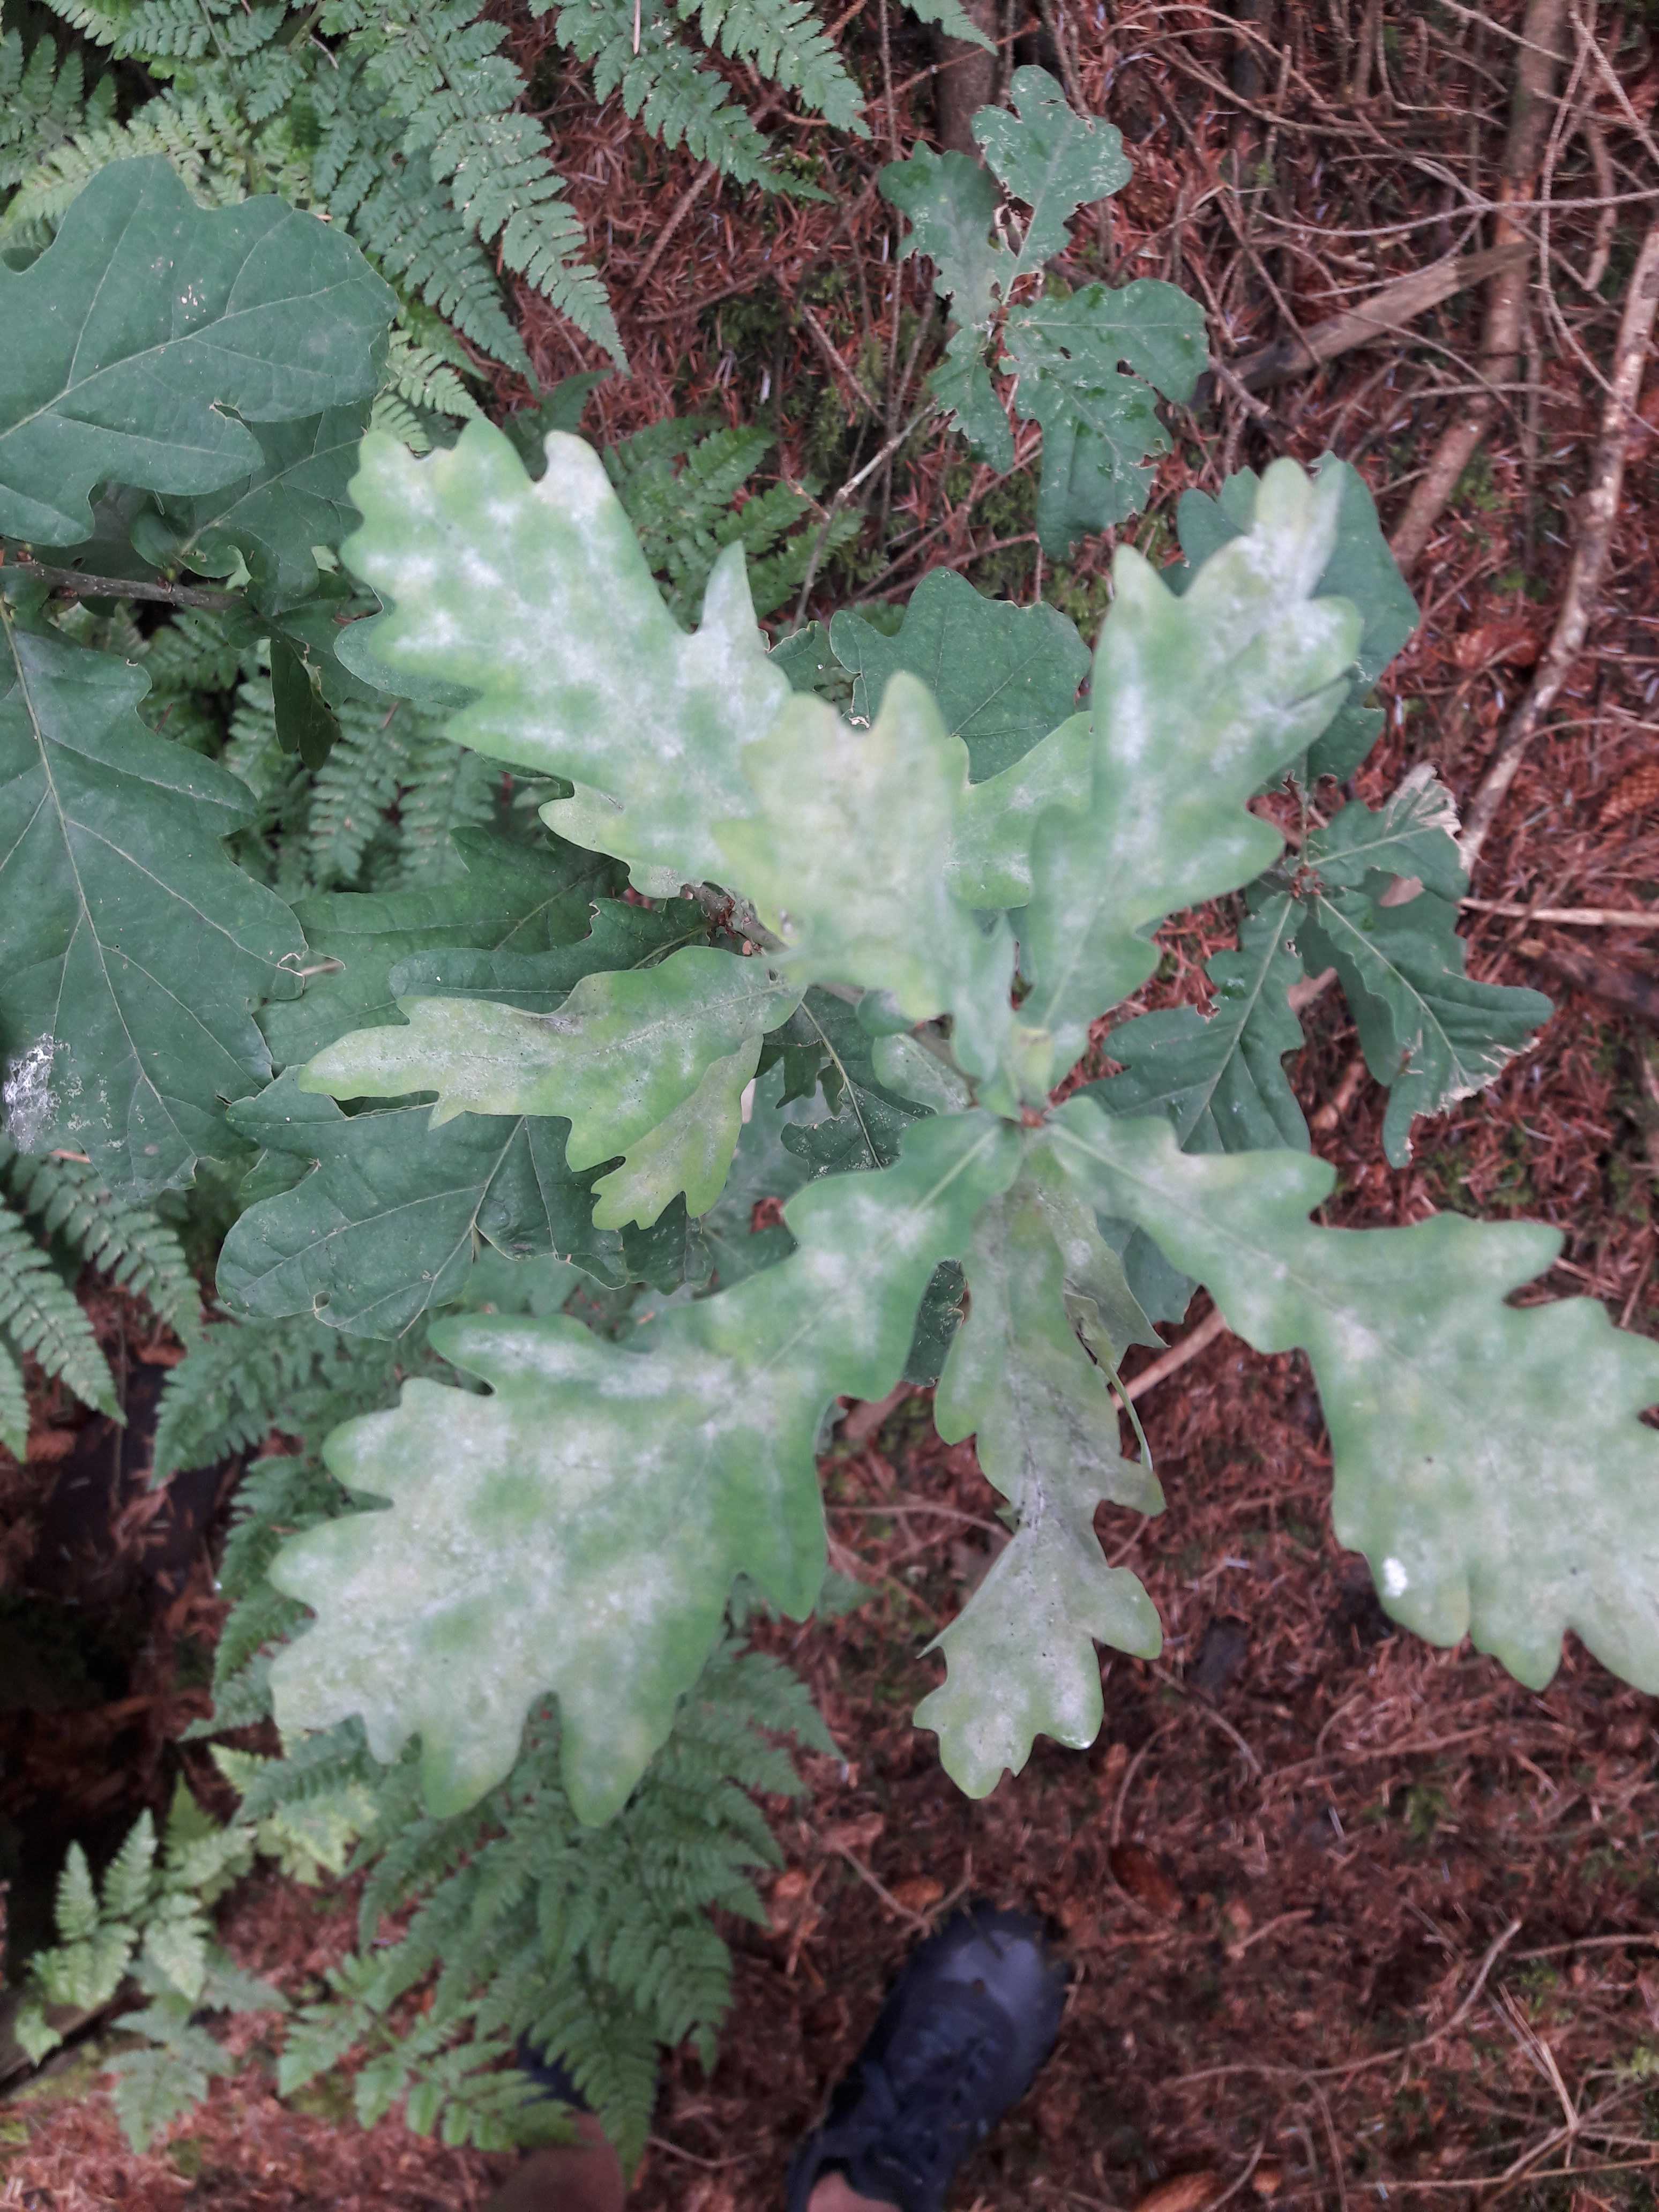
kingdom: Fungi
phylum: Ascomycota
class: Leotiomycetes
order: Helotiales
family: Erysiphaceae
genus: Erysiphe
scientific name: Erysiphe alphitoides
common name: ege-meldug
